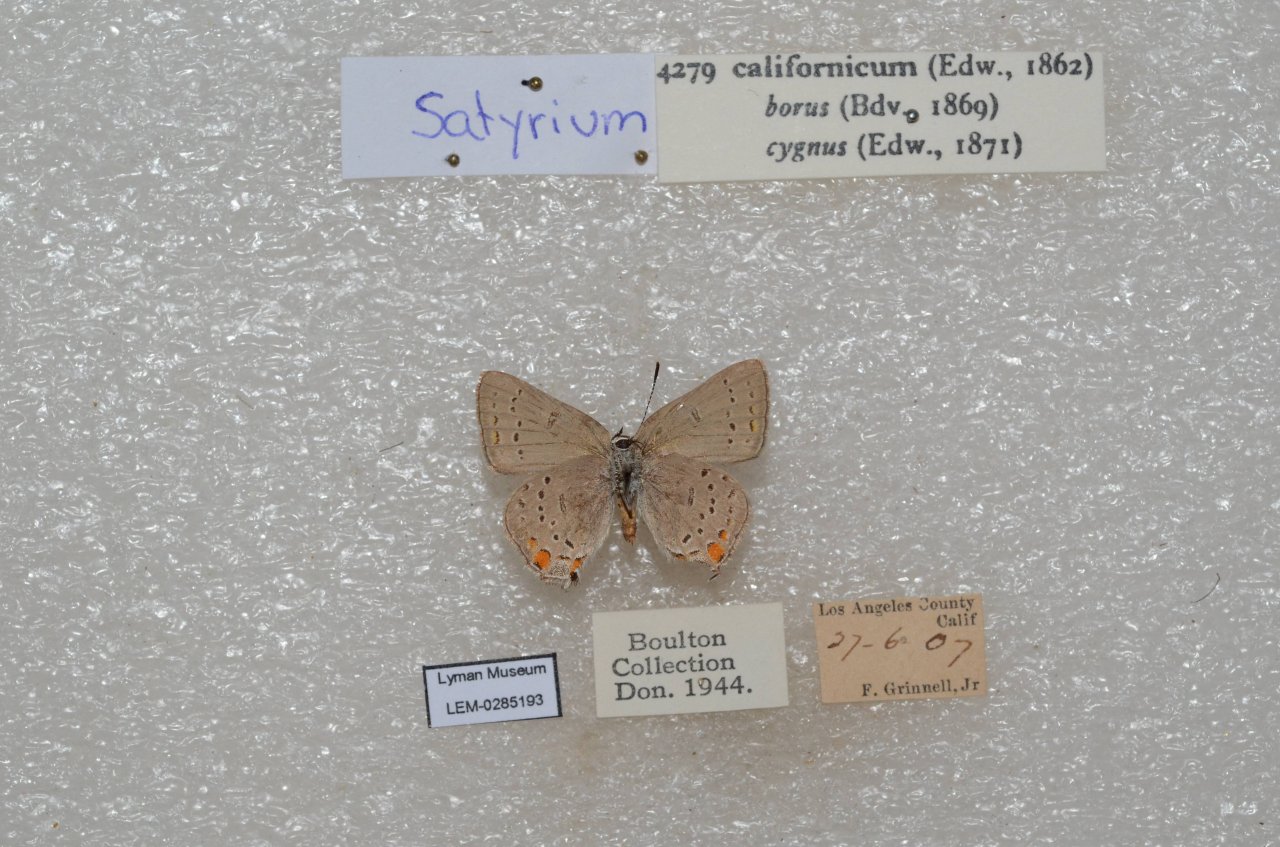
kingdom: Animalia
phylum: Arthropoda
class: Insecta
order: Lepidoptera
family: Lycaenidae
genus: Strymon
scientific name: Strymon acadica
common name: California Hairstreak
